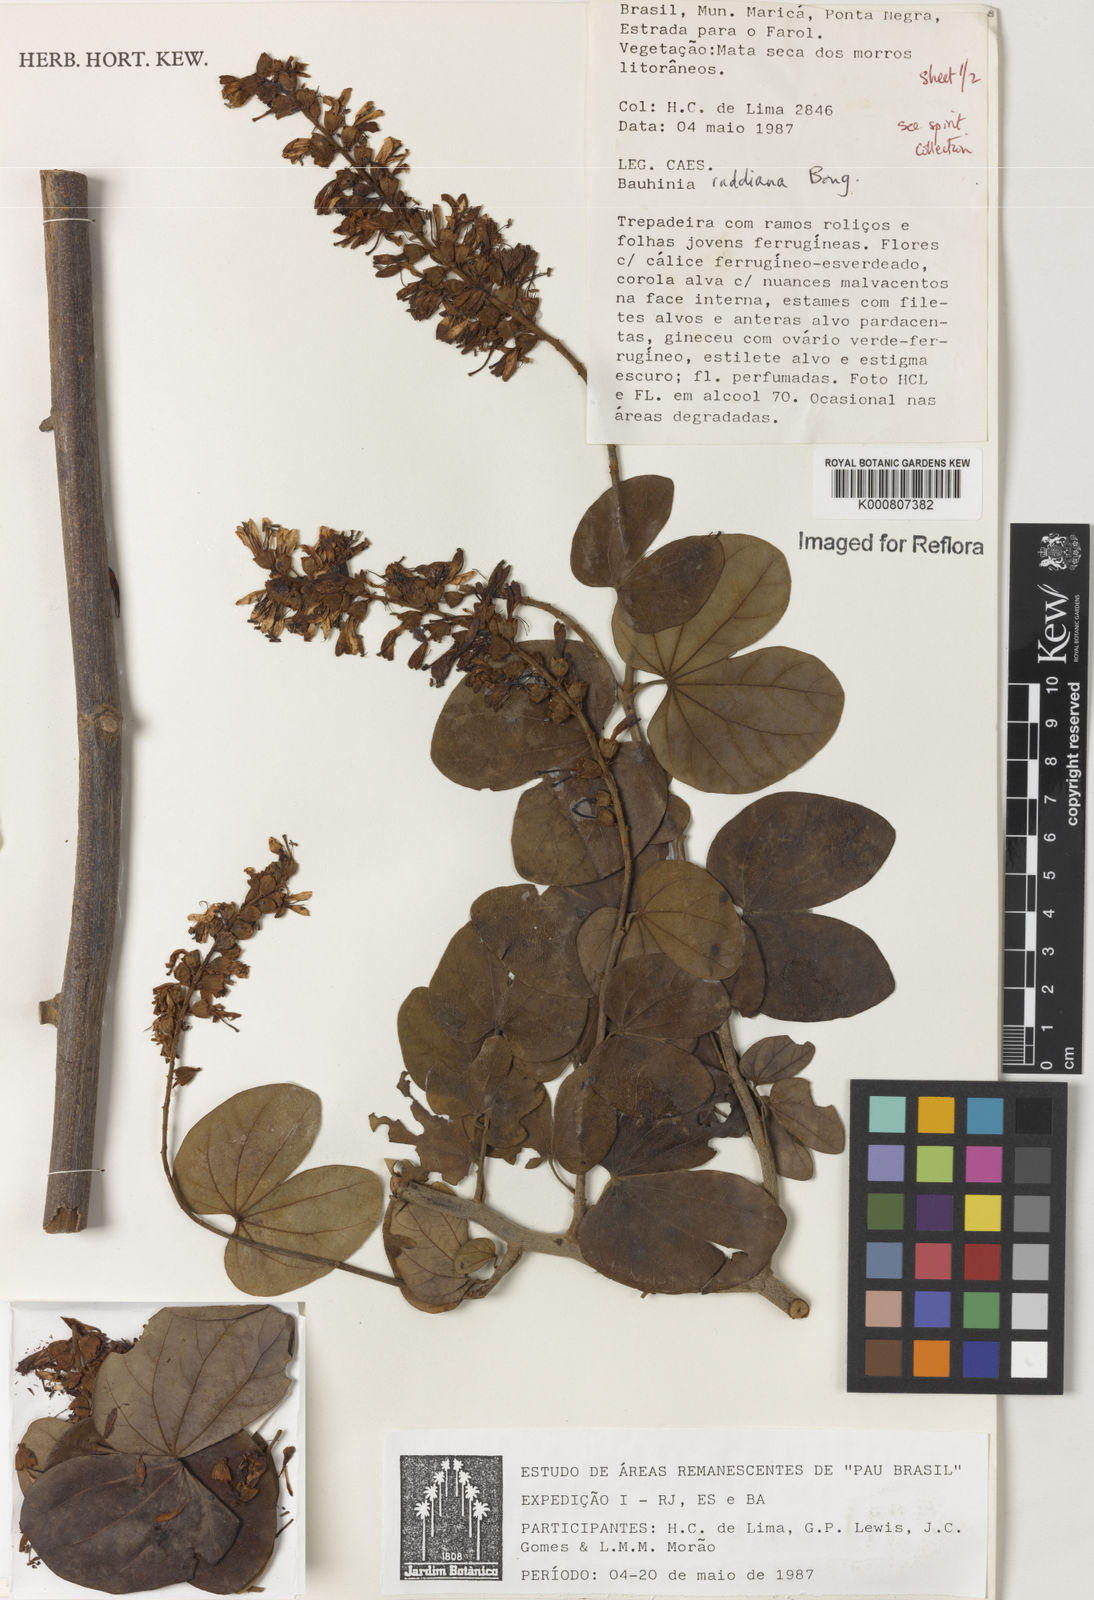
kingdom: Plantae
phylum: Tracheophyta
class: Magnoliopsida
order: Fabales
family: Fabaceae
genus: Schnella
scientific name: Schnella macrostachya
